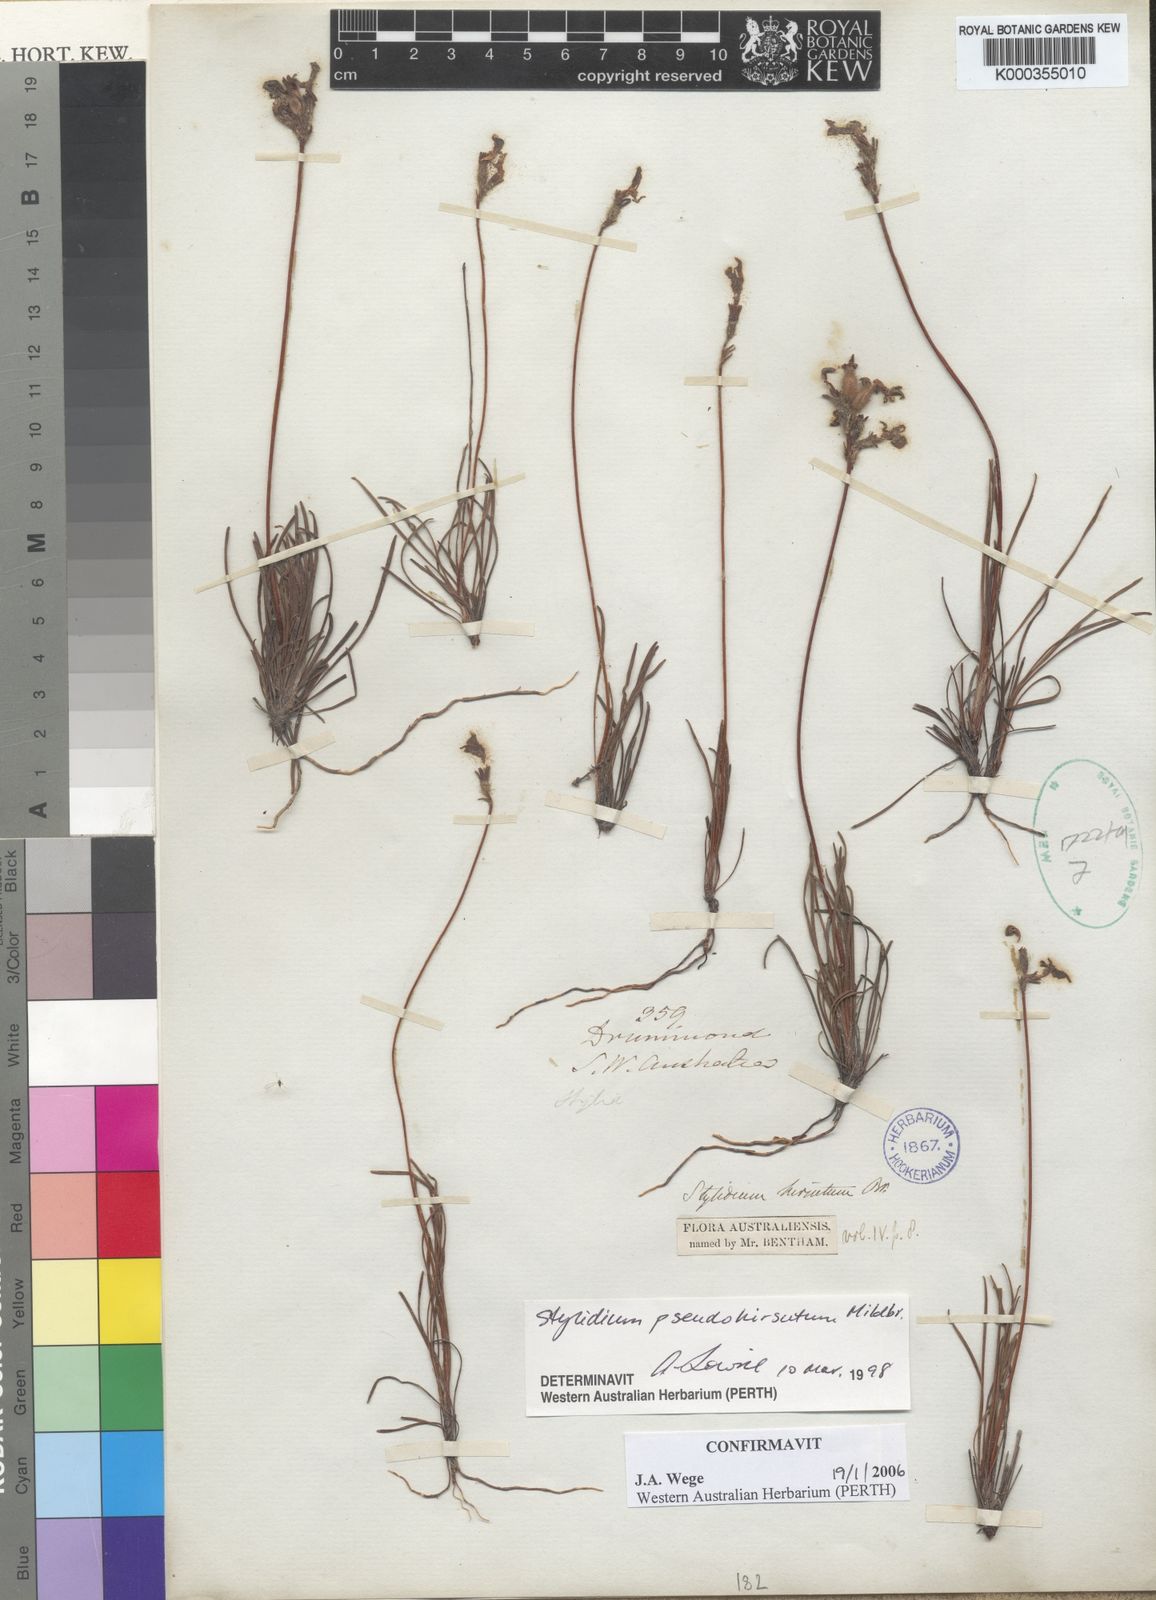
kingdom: Plantae
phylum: Tracheophyta
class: Magnoliopsida
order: Asterales
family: Stylidiaceae
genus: Stylidium
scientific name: Stylidium pseudohirsutum
